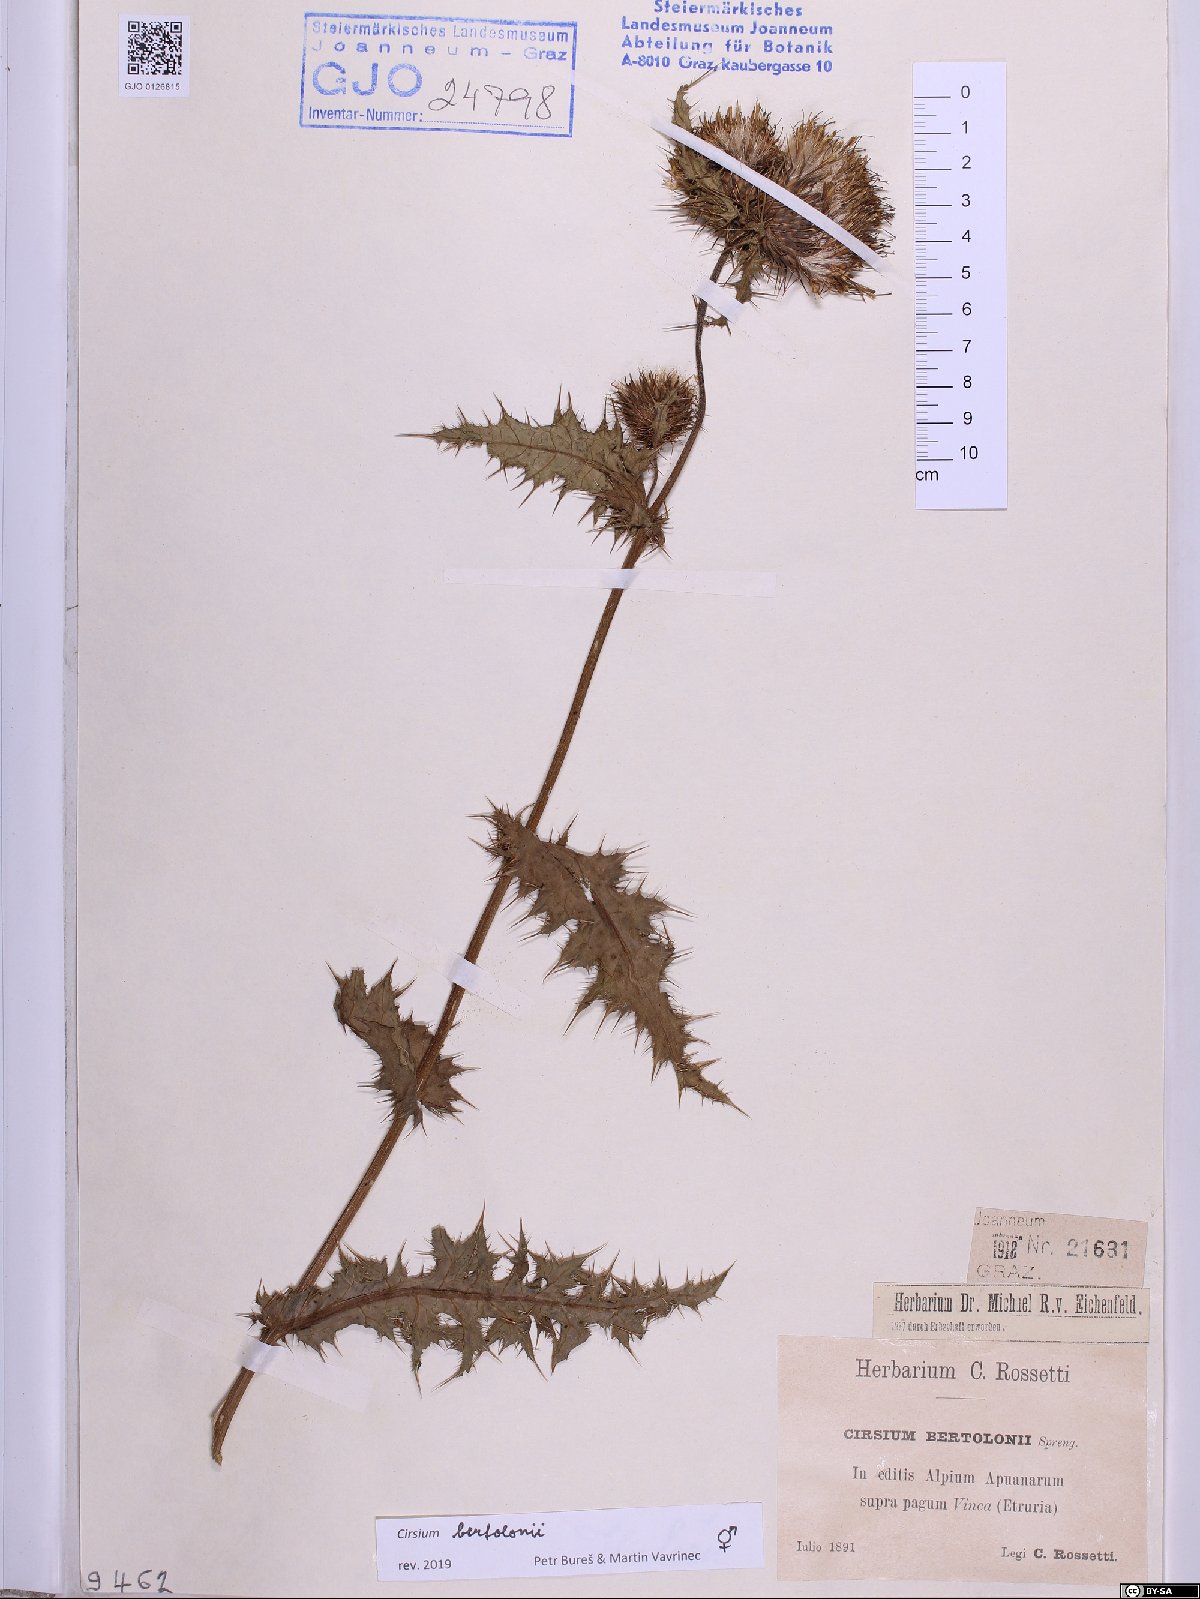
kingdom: Plantae
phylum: Tracheophyta
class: Magnoliopsida
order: Asterales
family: Asteraceae
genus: Cirsium
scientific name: Cirsium bertolonii
